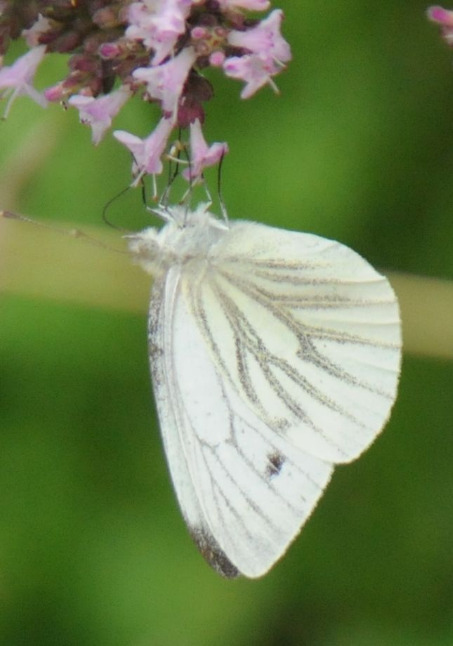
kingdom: Animalia
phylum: Arthropoda
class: Insecta
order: Lepidoptera
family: Pieridae
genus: Pieris
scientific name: Pieris napi
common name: Grønåret kålsommerfugl
